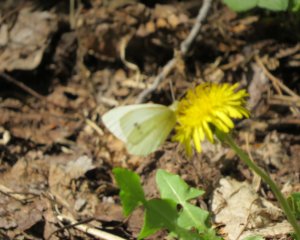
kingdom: Animalia
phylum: Arthropoda
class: Insecta
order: Lepidoptera
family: Pieridae
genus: Pieris
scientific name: Pieris rapae
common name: Cabbage White
